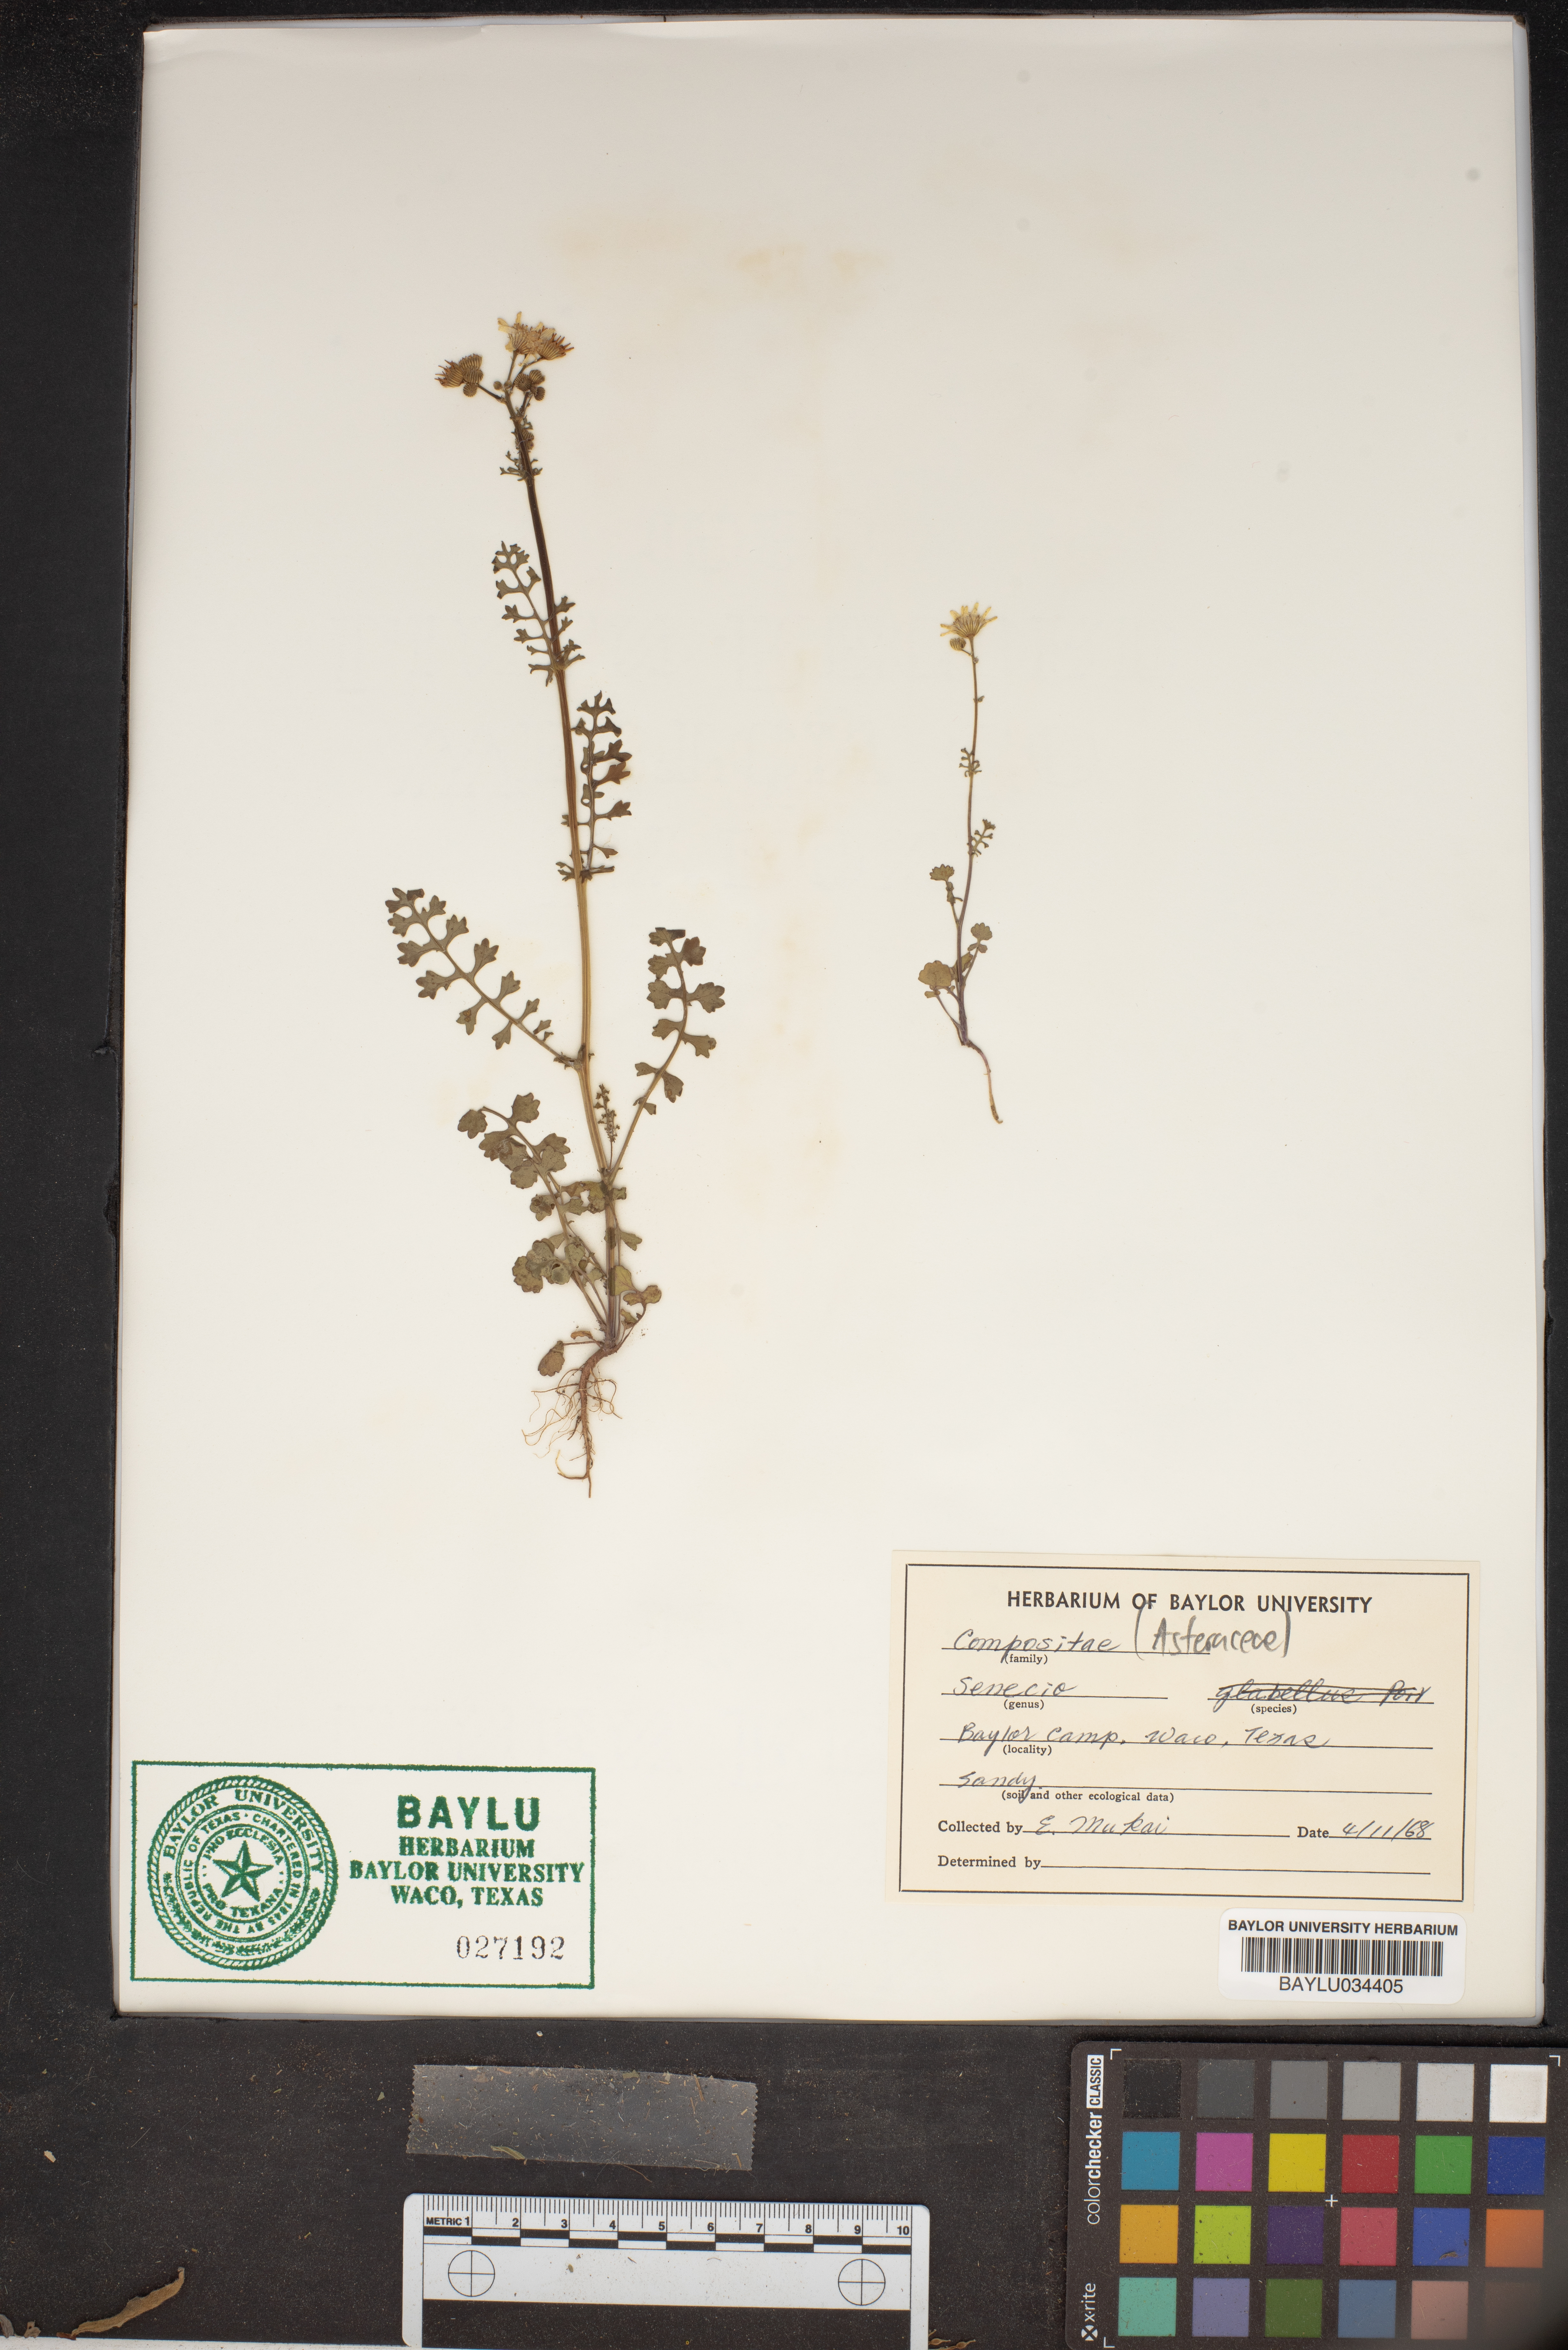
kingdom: Plantae
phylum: Tracheophyta
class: Magnoliopsida
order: Asterales
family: Asteraceae
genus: Tephroseris
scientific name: Tephroseris praticola
